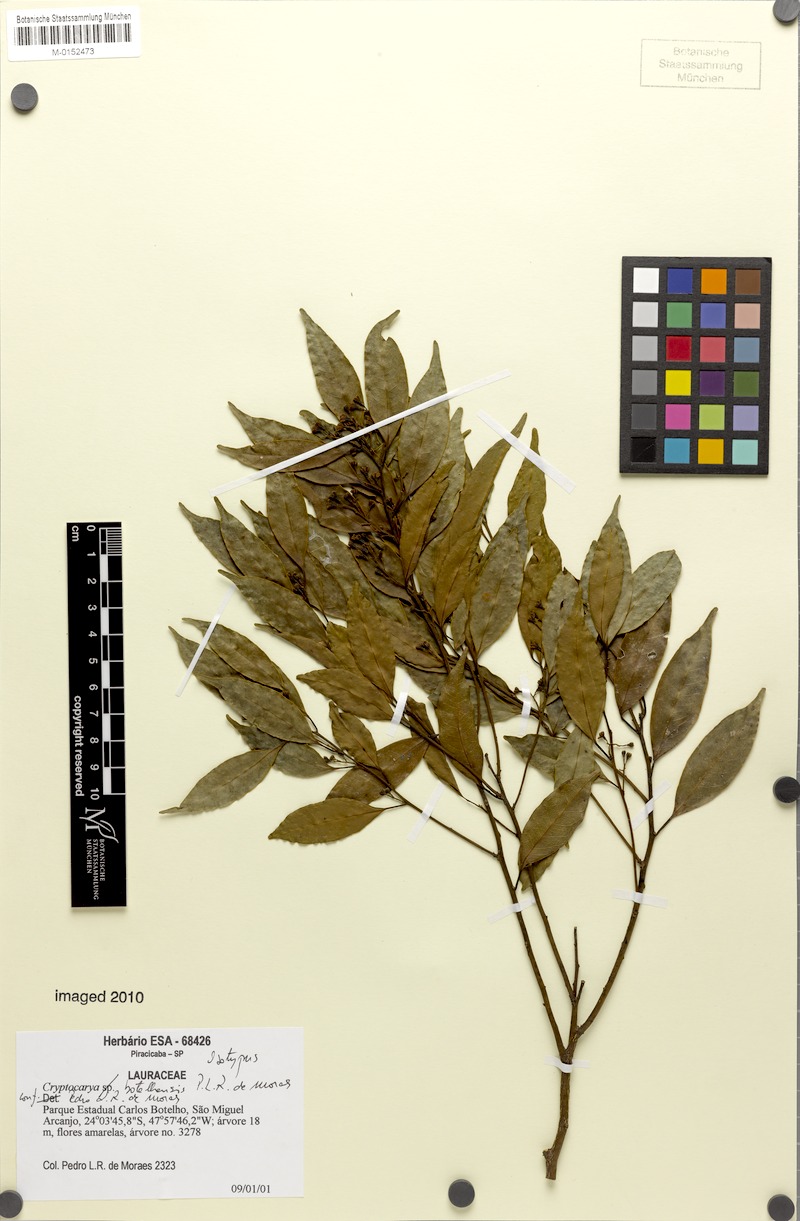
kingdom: Plantae
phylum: Tracheophyta
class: Magnoliopsida
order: Laurales
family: Lauraceae
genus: Cryptocarya
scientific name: Cryptocarya botelhensis
